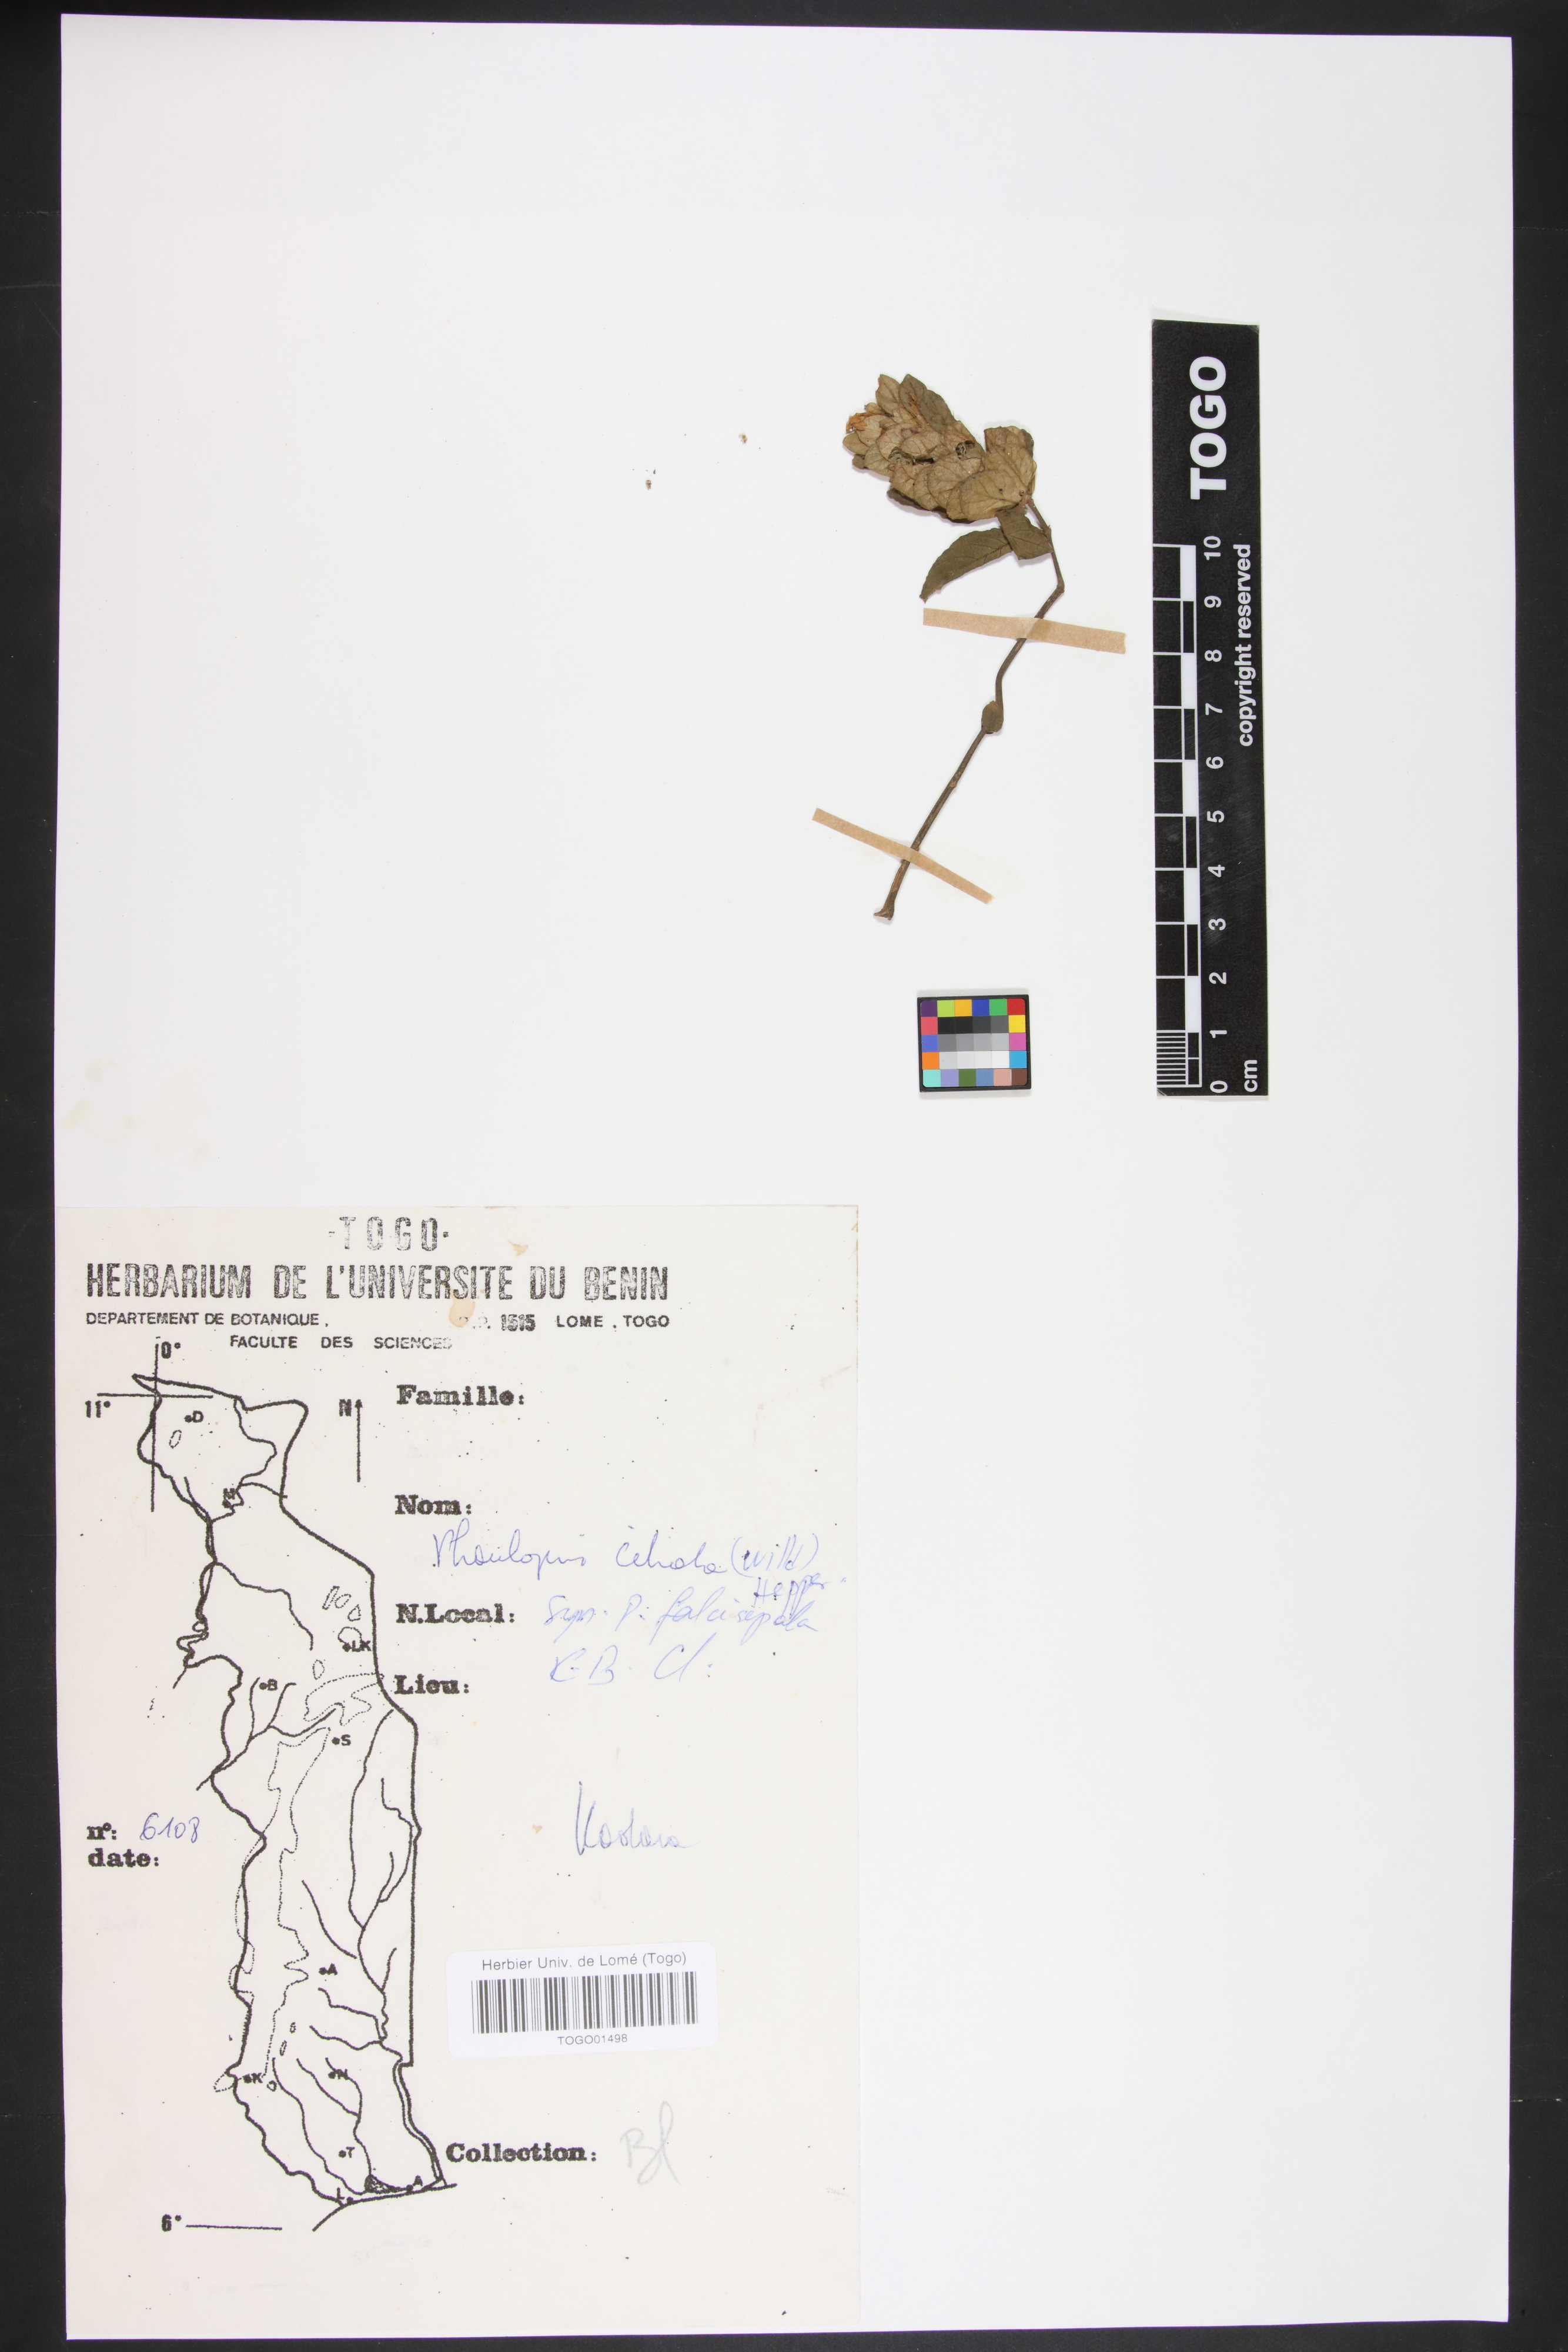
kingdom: Plantae
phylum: Tracheophyta
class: Magnoliopsida
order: Lamiales
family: Acanthaceae
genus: Phaulopsis
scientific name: Phaulopsis ciliata
